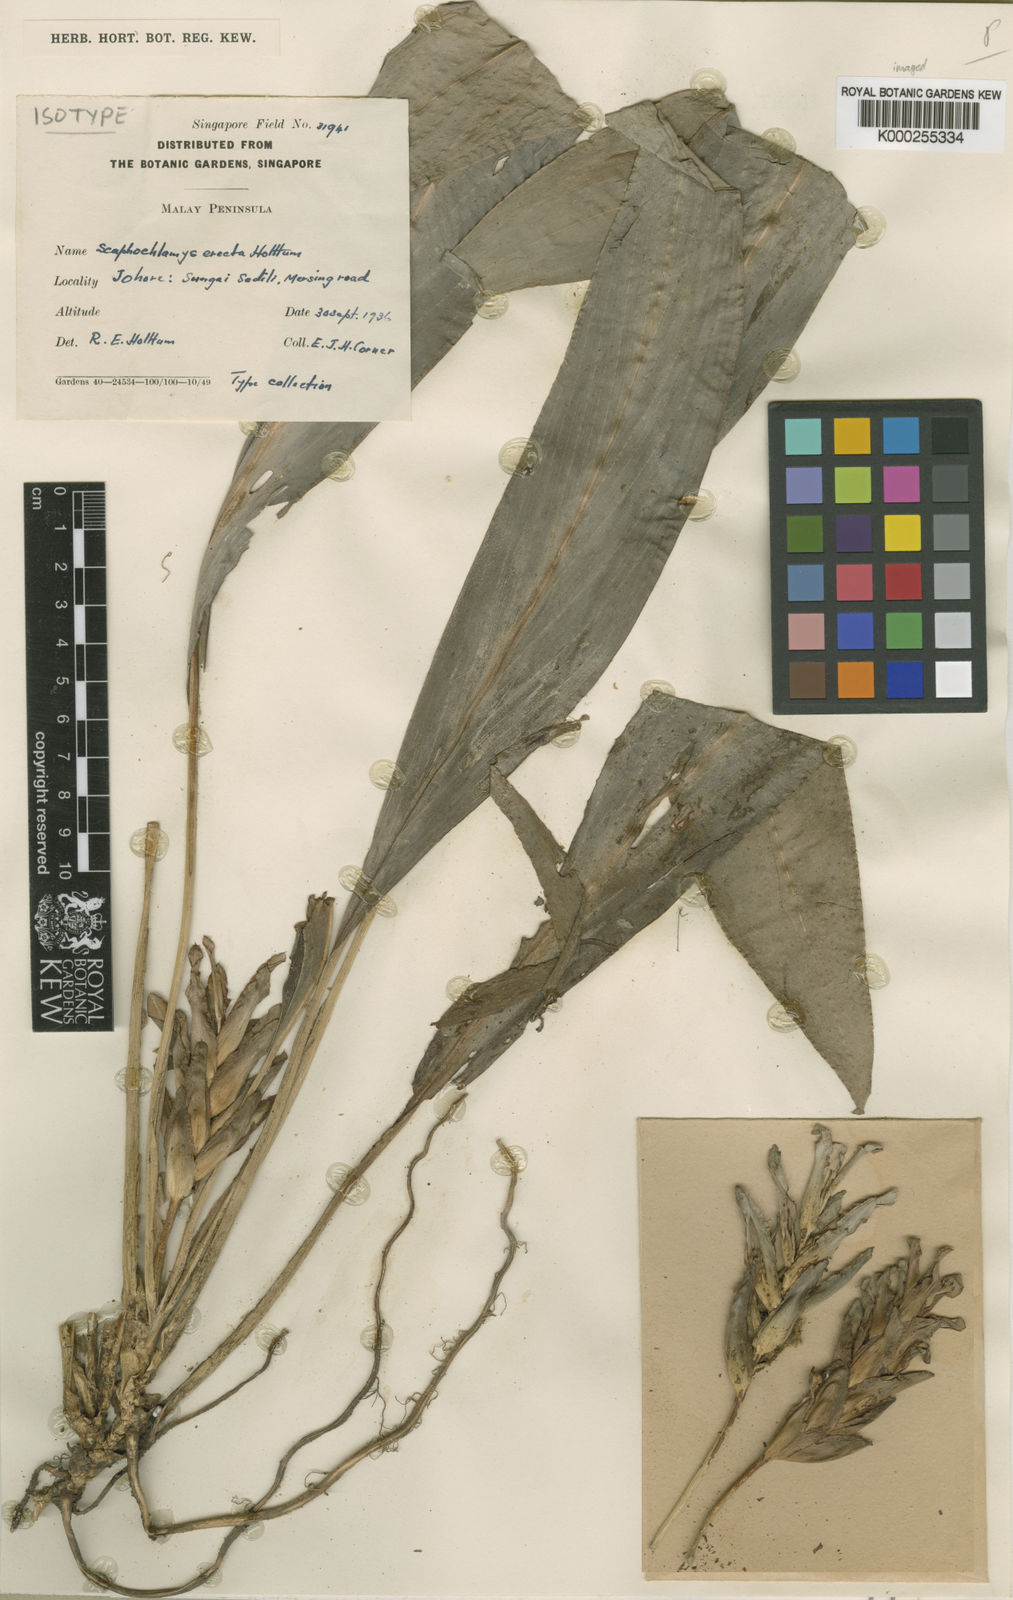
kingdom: Plantae
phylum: Tracheophyta
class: Liliopsida
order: Zingiberales
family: Zingiberaceae
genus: Scaphochlamys
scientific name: Scaphochlamys erecta
